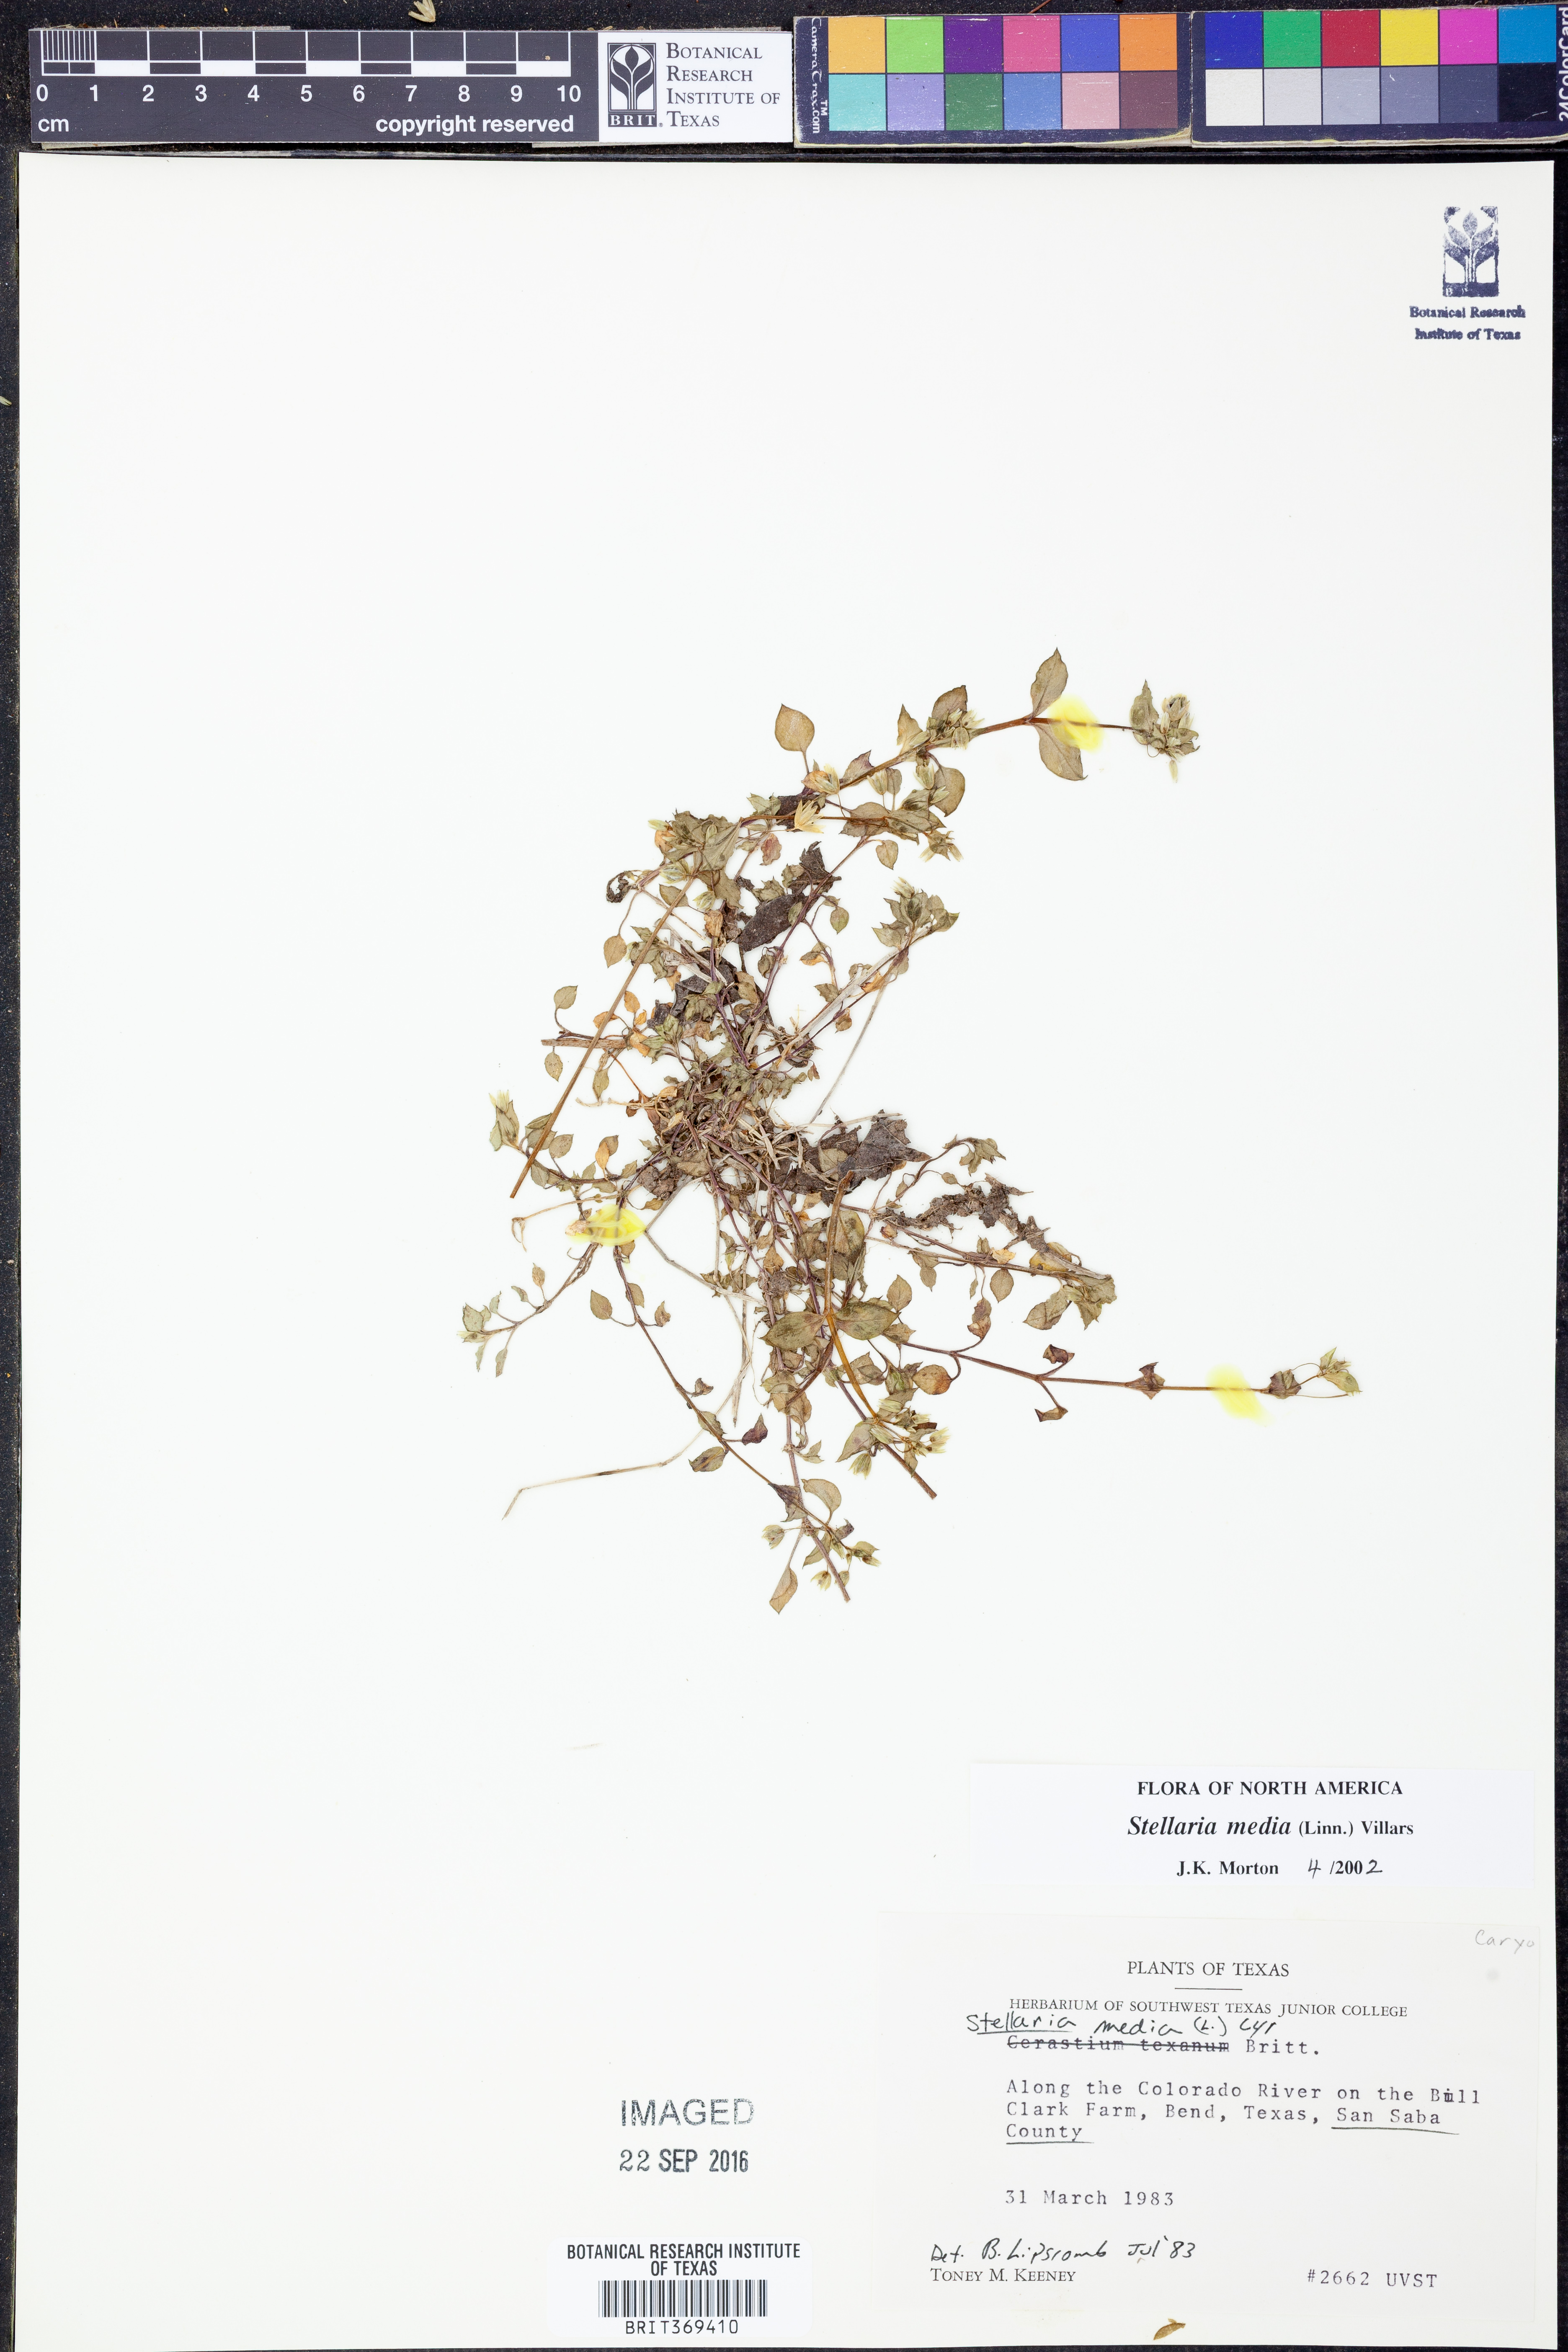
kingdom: Plantae
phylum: Tracheophyta
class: Magnoliopsida
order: Caryophyllales
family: Caryophyllaceae
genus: Stellaria
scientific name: Stellaria media
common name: Common chickweed
